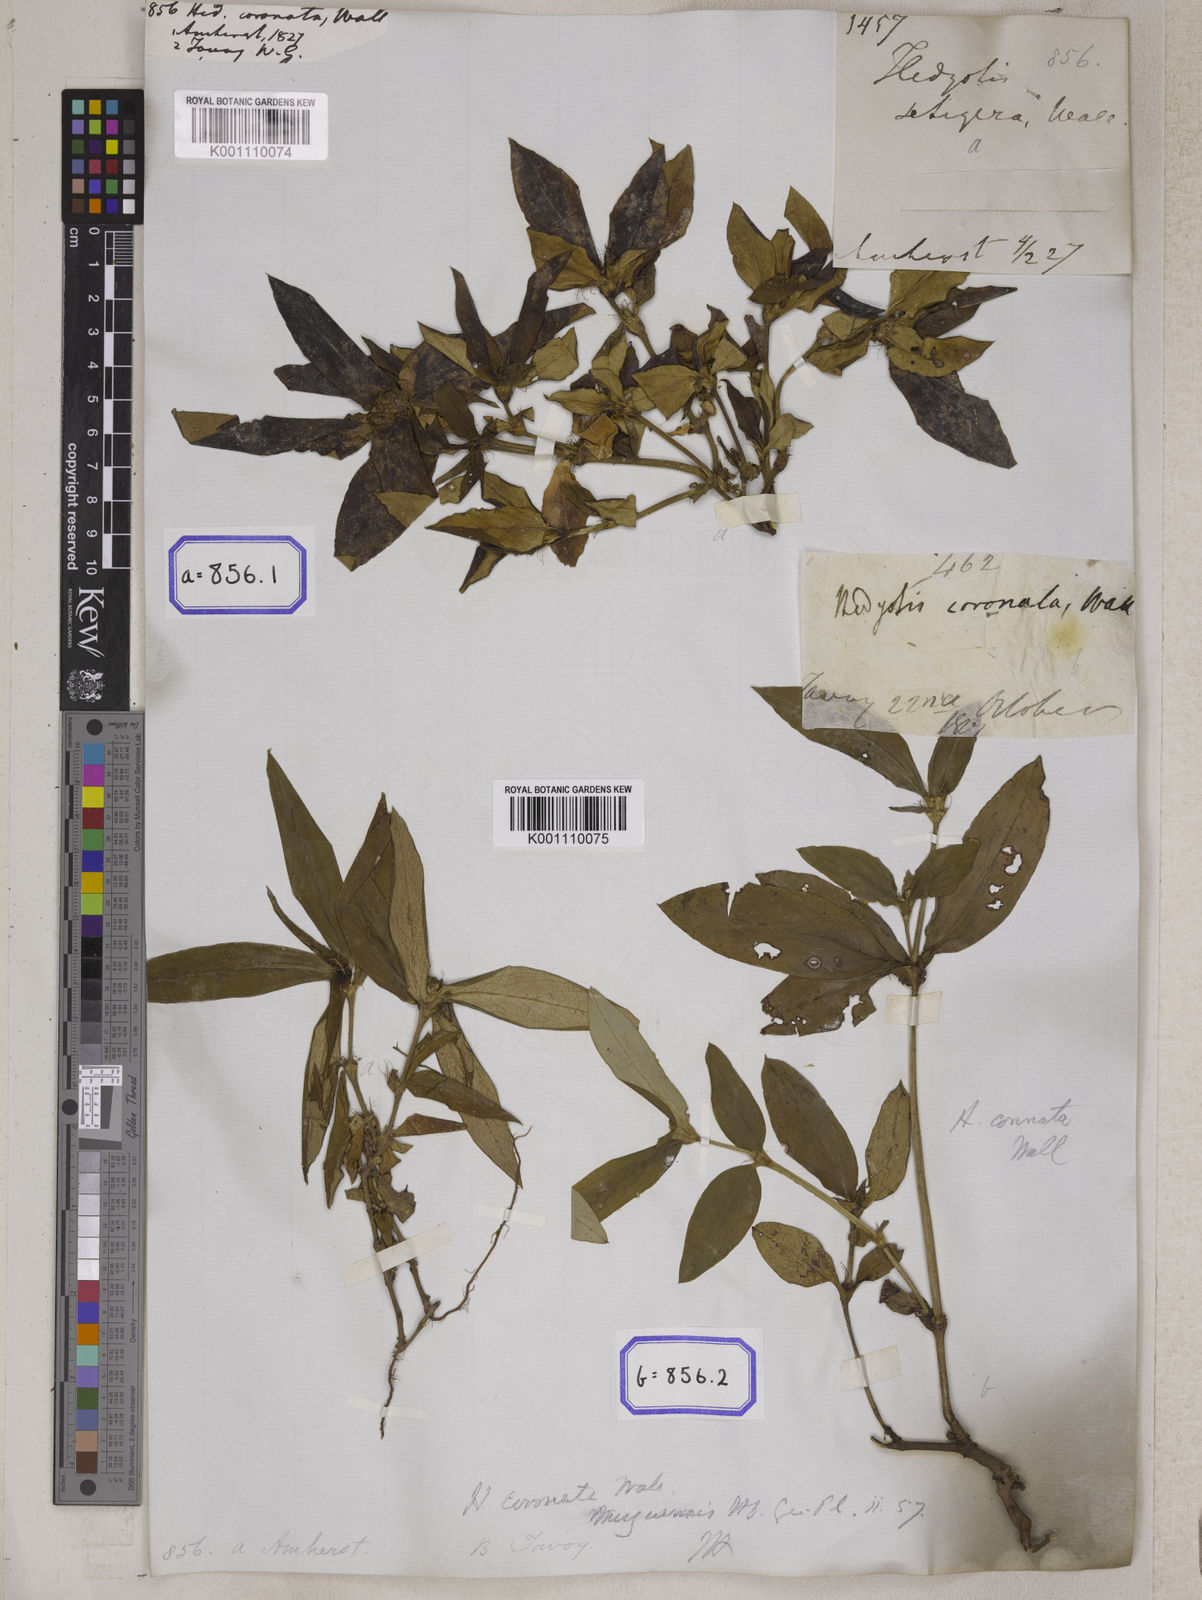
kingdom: Plantae
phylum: Tracheophyta
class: Magnoliopsida
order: Gentianales
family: Rubiaceae
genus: Hedyotis
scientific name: Hedyotis
